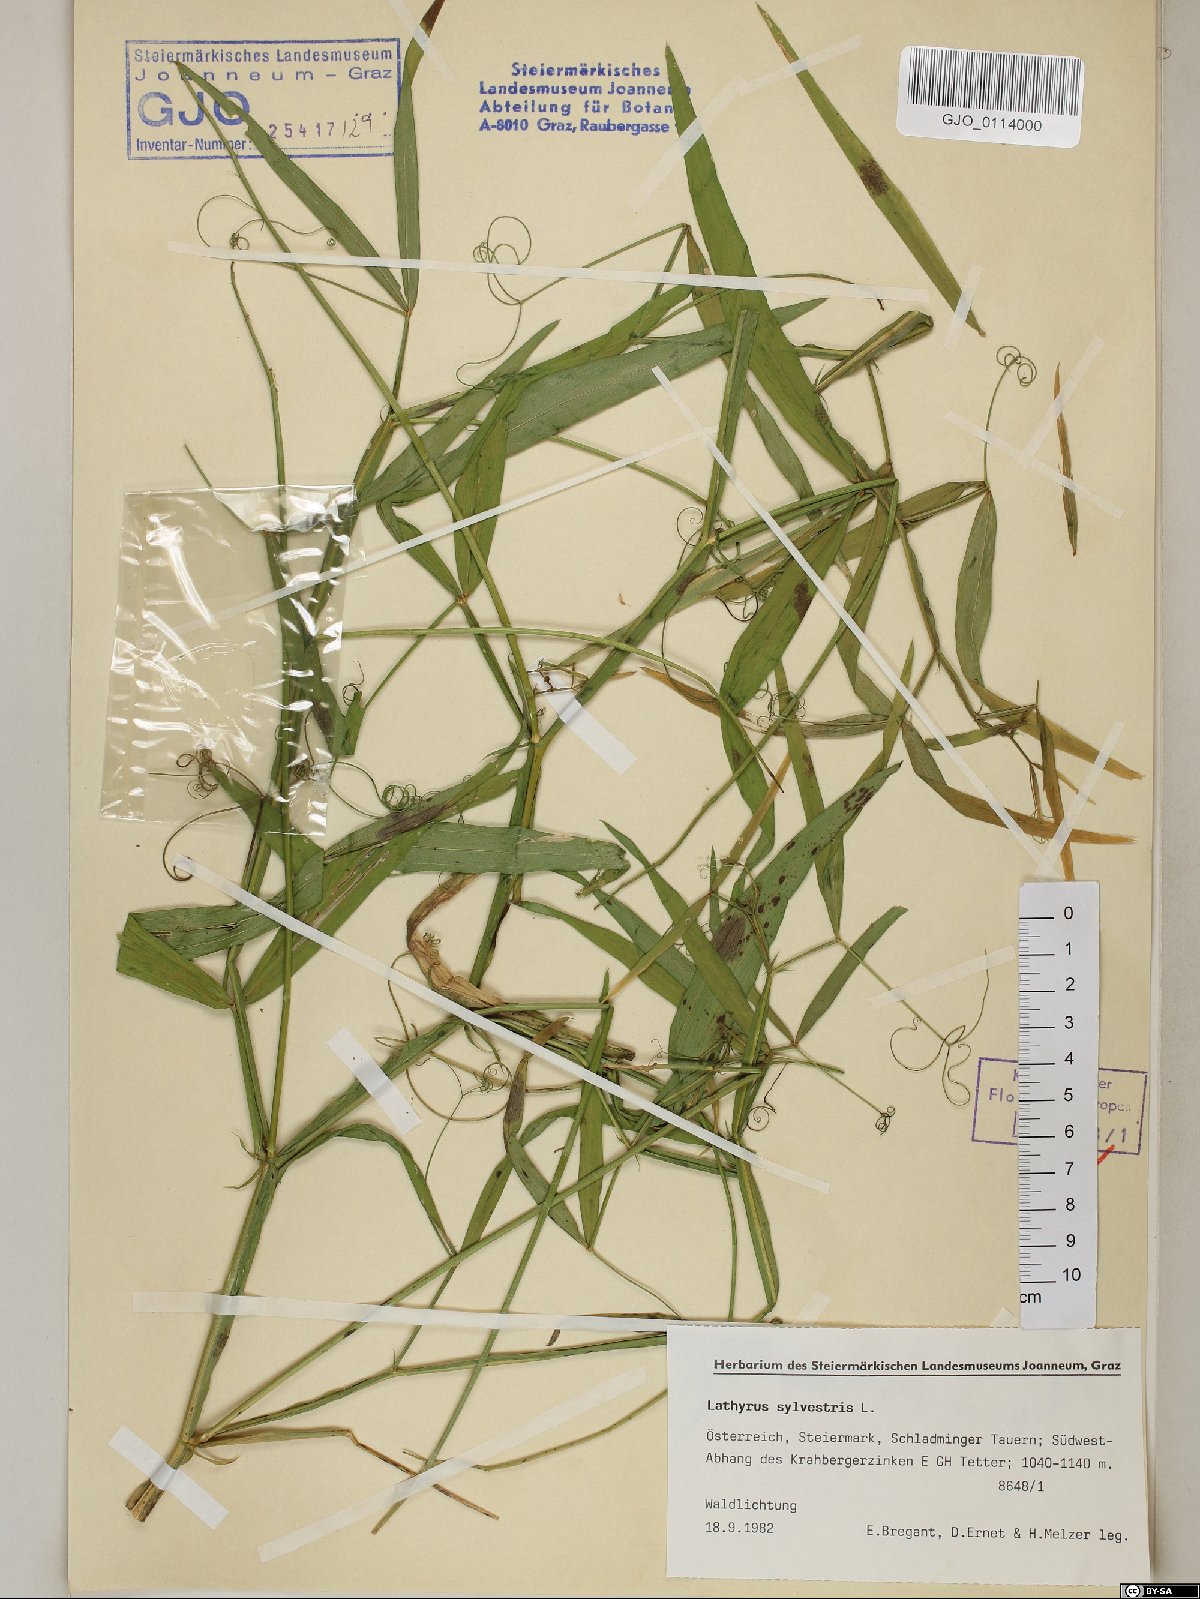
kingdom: Plantae
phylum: Tracheophyta
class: Magnoliopsida
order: Fabales
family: Fabaceae
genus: Lathyrus
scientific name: Lathyrus sylvestris
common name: Flat pea
